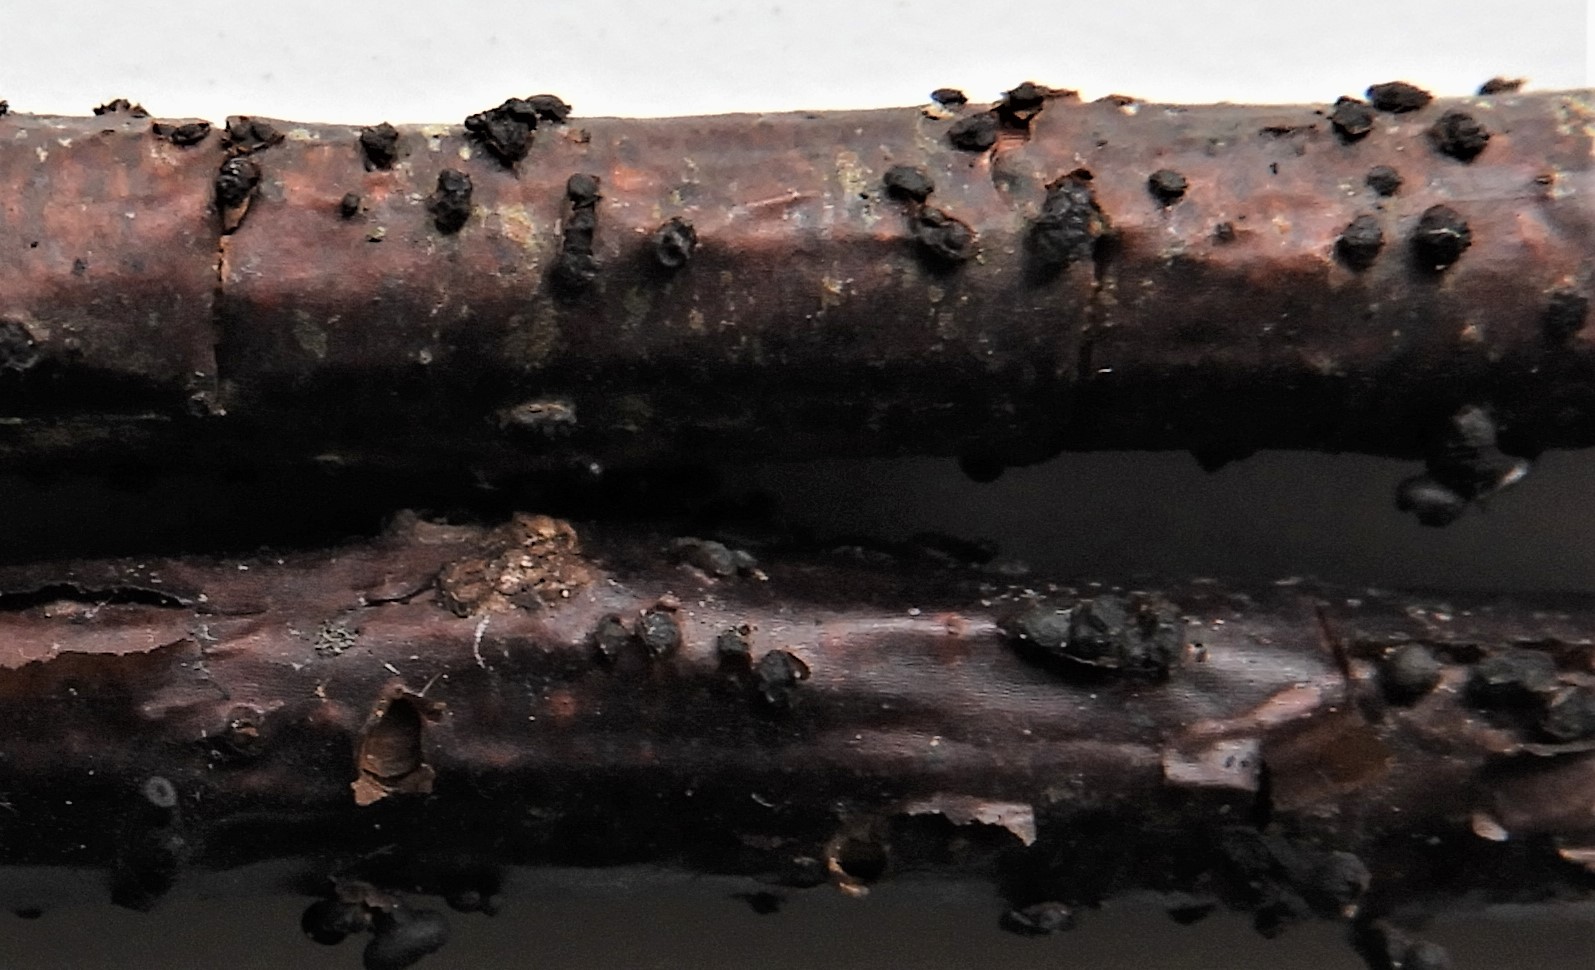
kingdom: Fungi
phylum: Ascomycota
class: Leotiomycetes
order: Helotiales
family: Godroniaceae
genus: Godronia
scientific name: Godronia uberiformis
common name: solbær-urneskive
